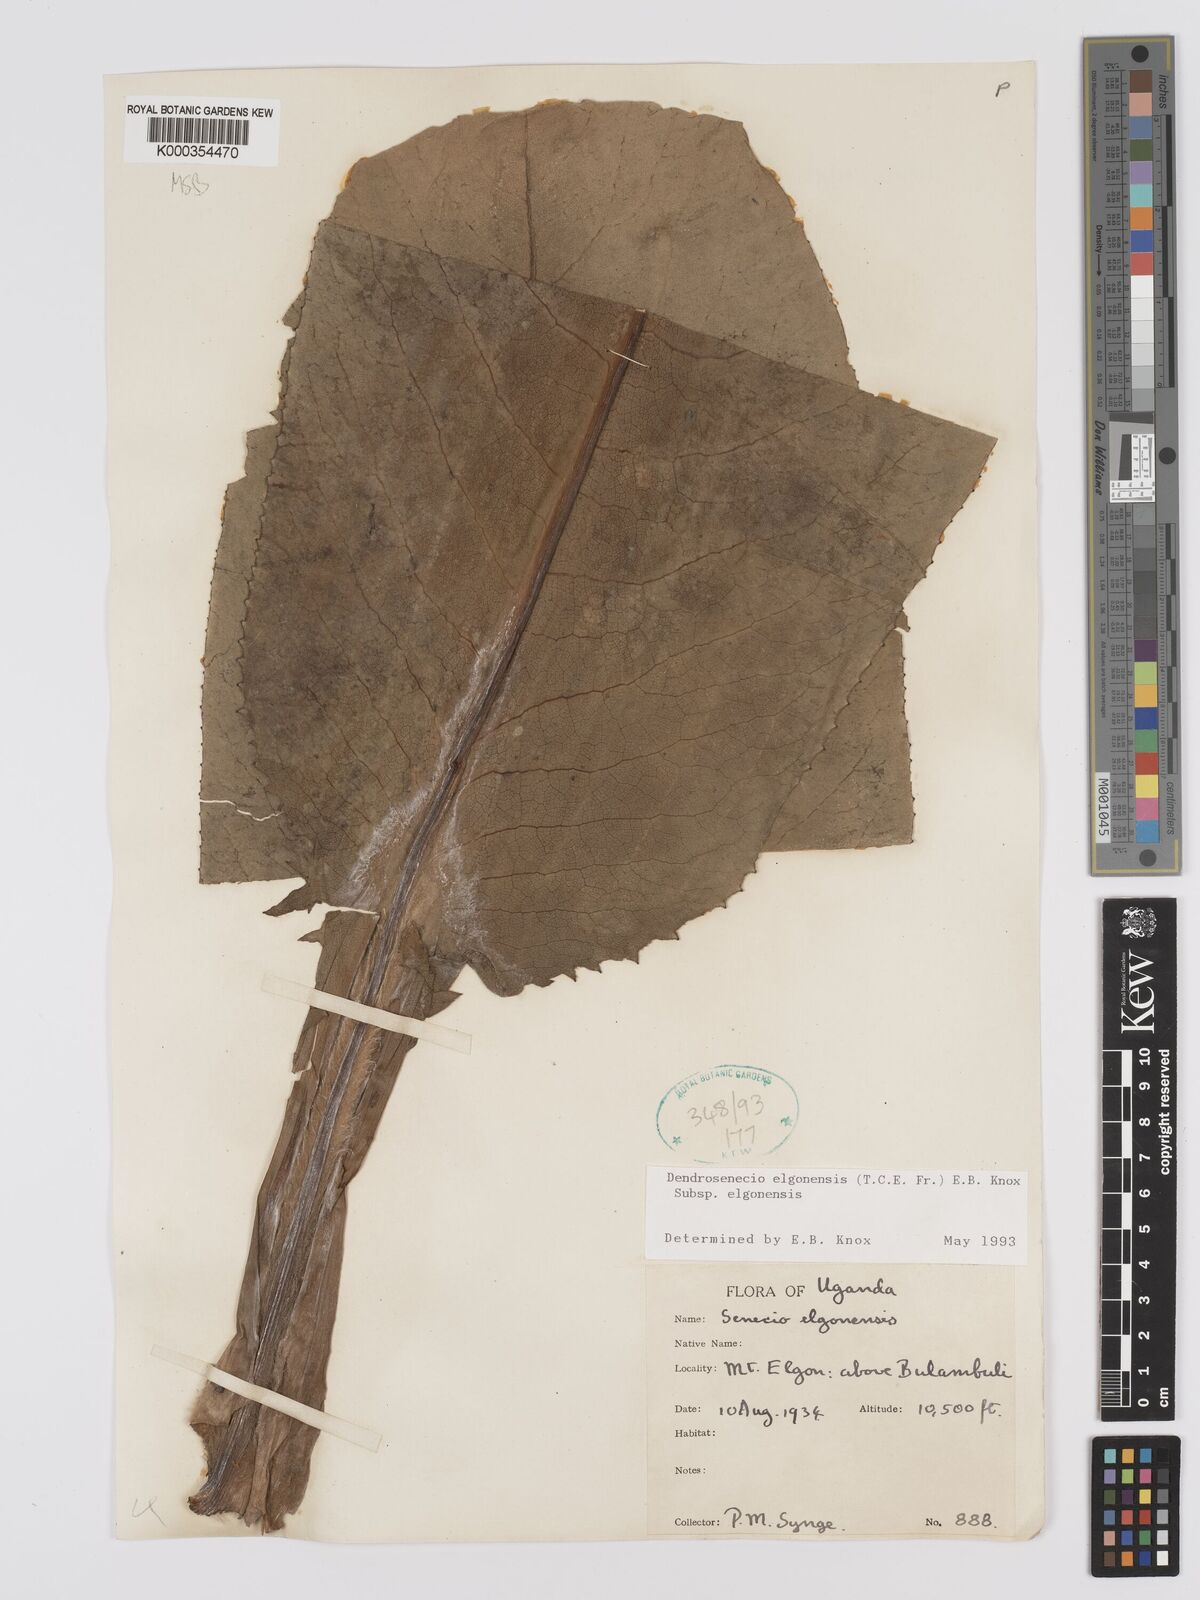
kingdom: Plantae
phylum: Tracheophyta
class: Magnoliopsida
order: Asterales
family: Asteraceae
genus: Dendrosenecio
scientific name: Dendrosenecio elgonensis
